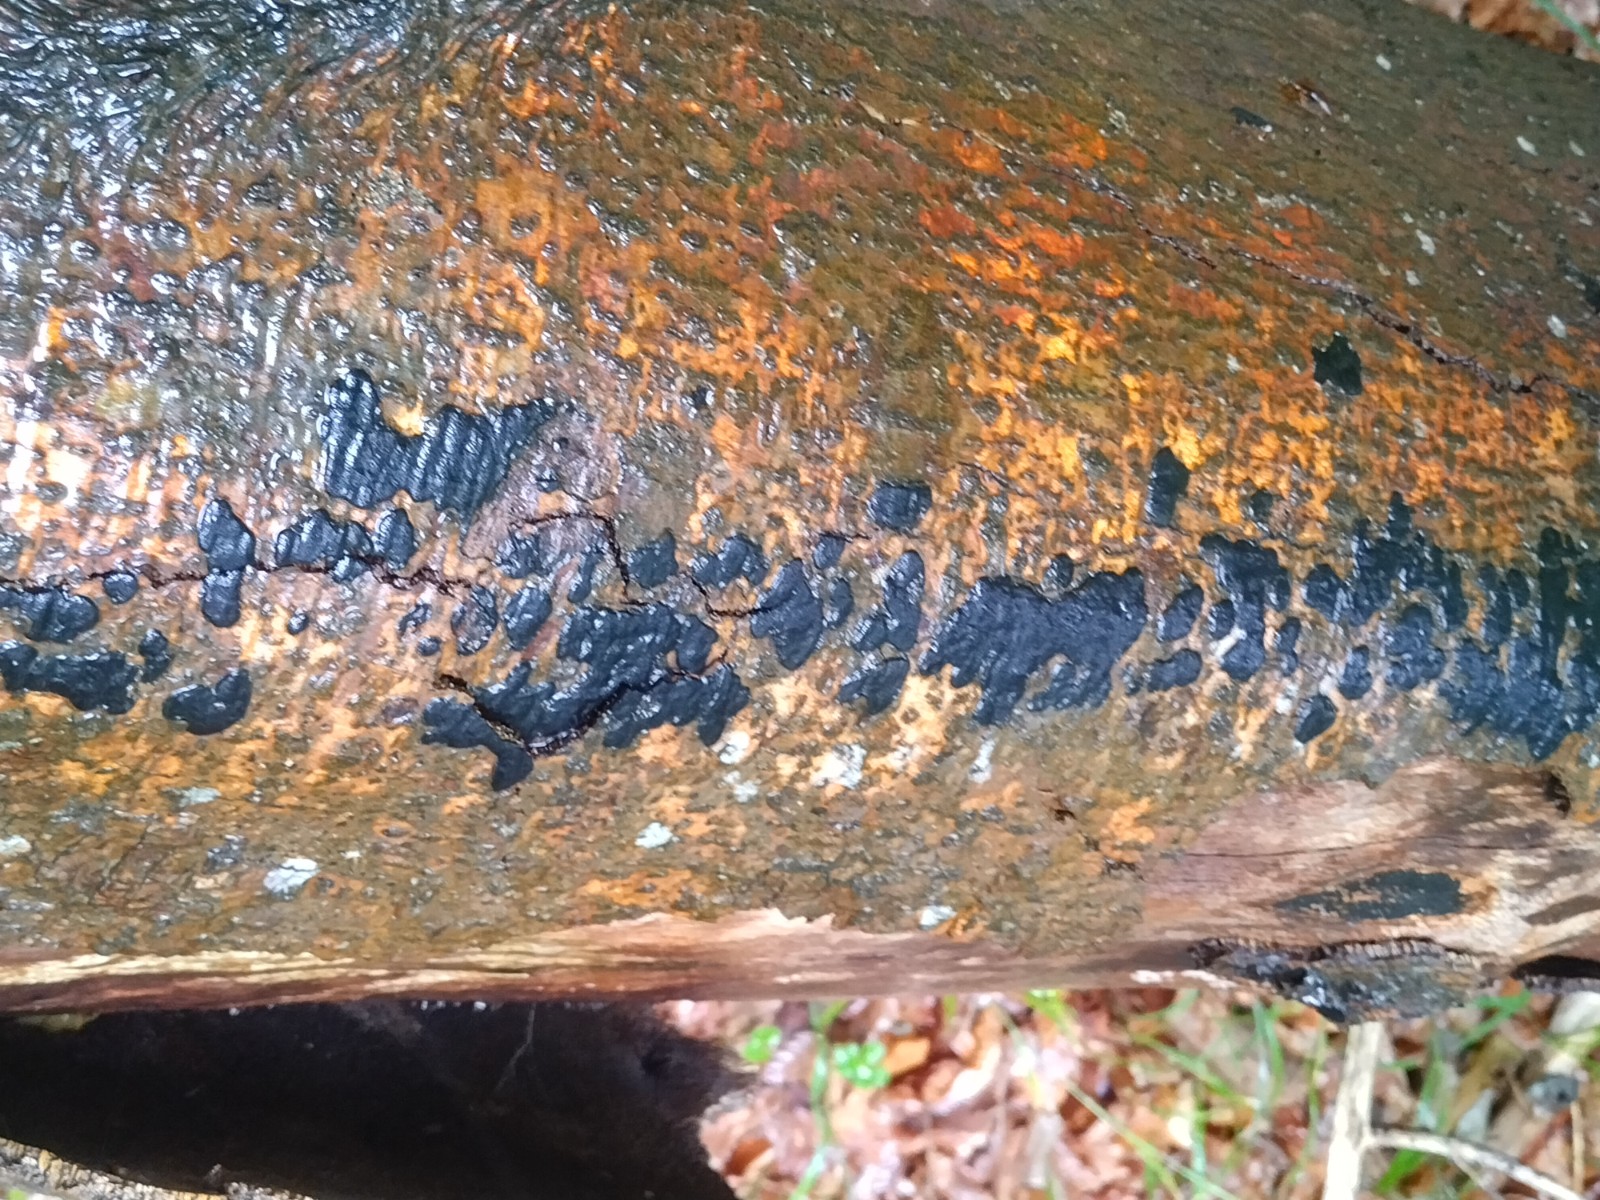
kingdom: Fungi
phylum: Ascomycota
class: Sordariomycetes
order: Xylariales
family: Graphostromataceae
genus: Biscogniauxia
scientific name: Biscogniauxia nummularia
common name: bøge-kulskive
